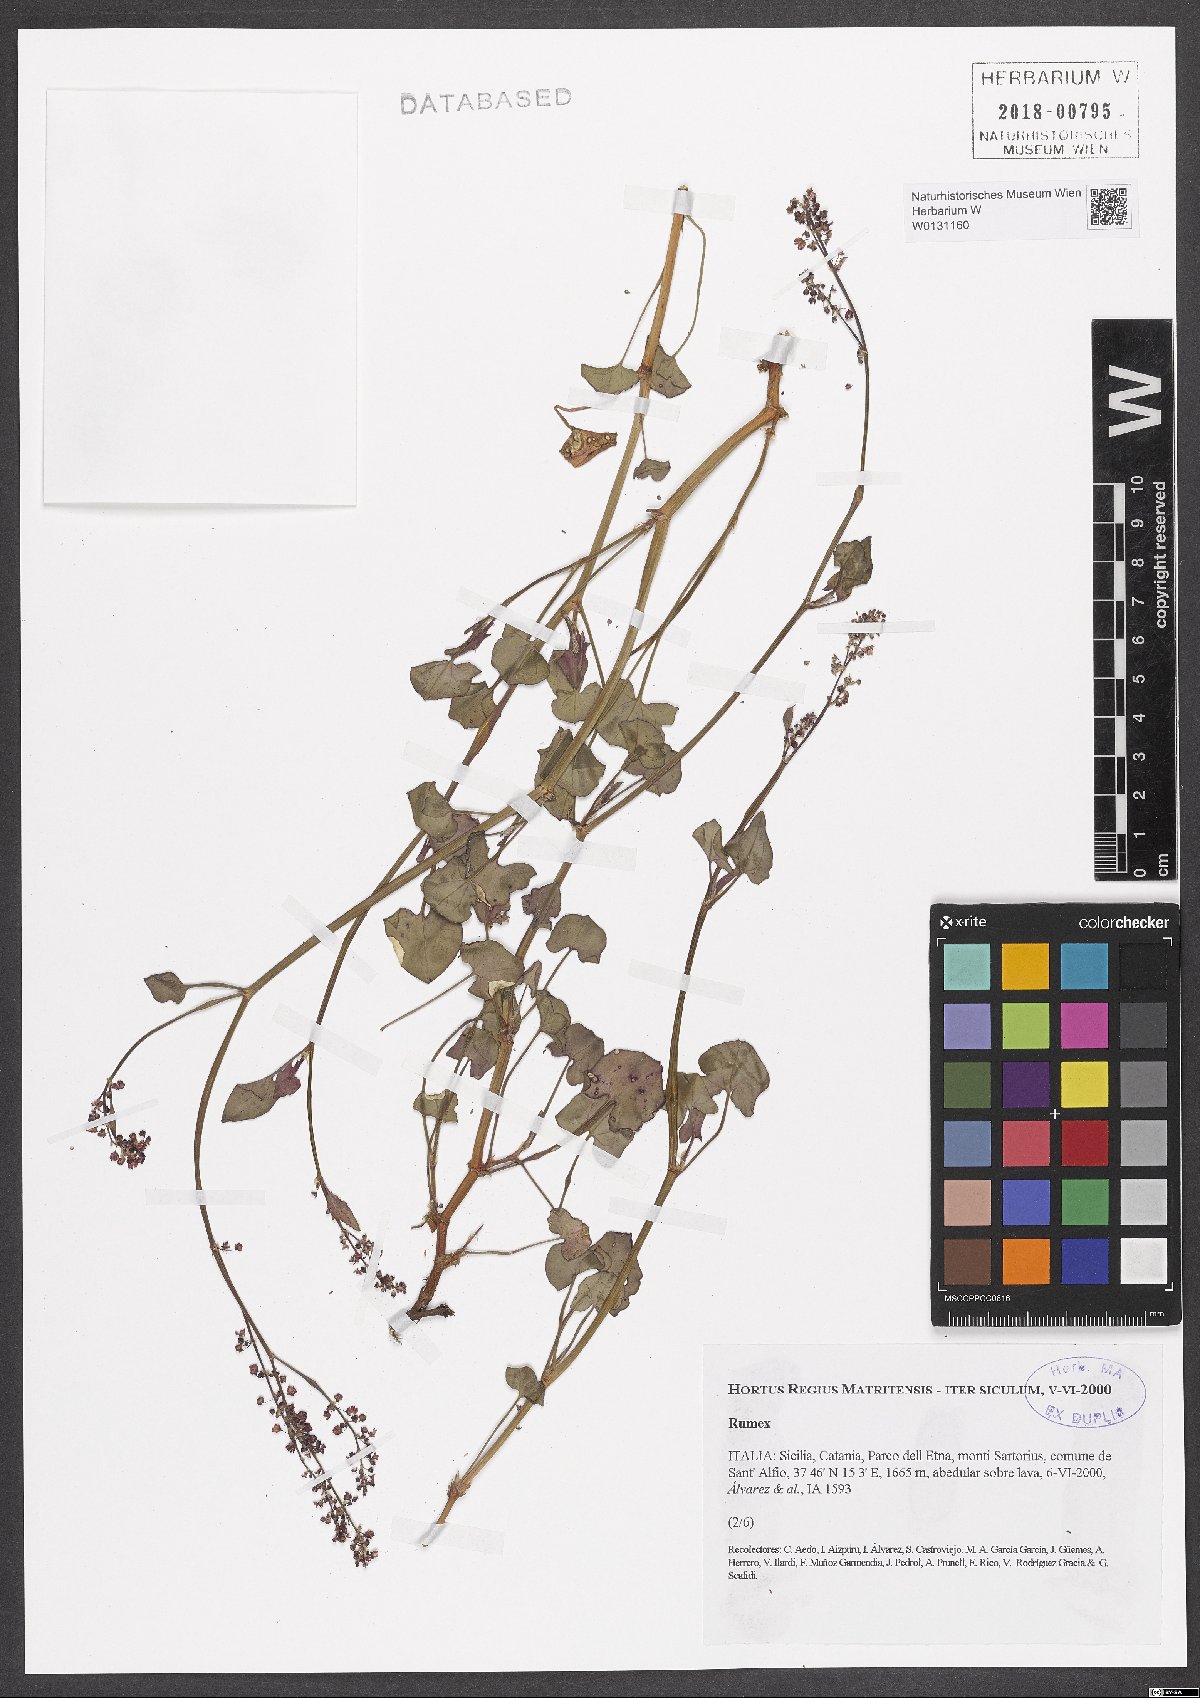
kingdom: Plantae
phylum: Tracheophyta
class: Magnoliopsida
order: Caryophyllales
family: Polygonaceae
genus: Rumex
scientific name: Rumex
